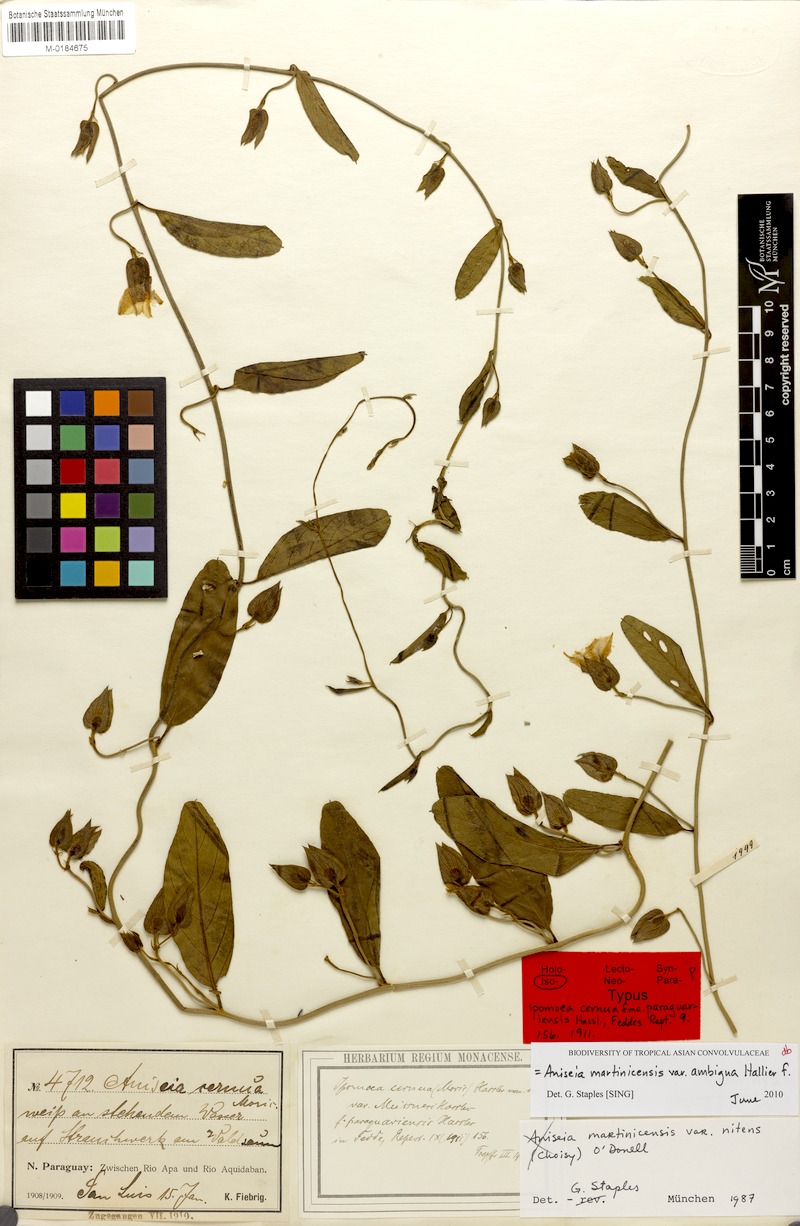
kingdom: Plantae
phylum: Tracheophyta
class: Magnoliopsida
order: Solanales
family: Convolvulaceae
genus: Aniseia
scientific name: Aniseia martinicensis
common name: Kulayadambu
